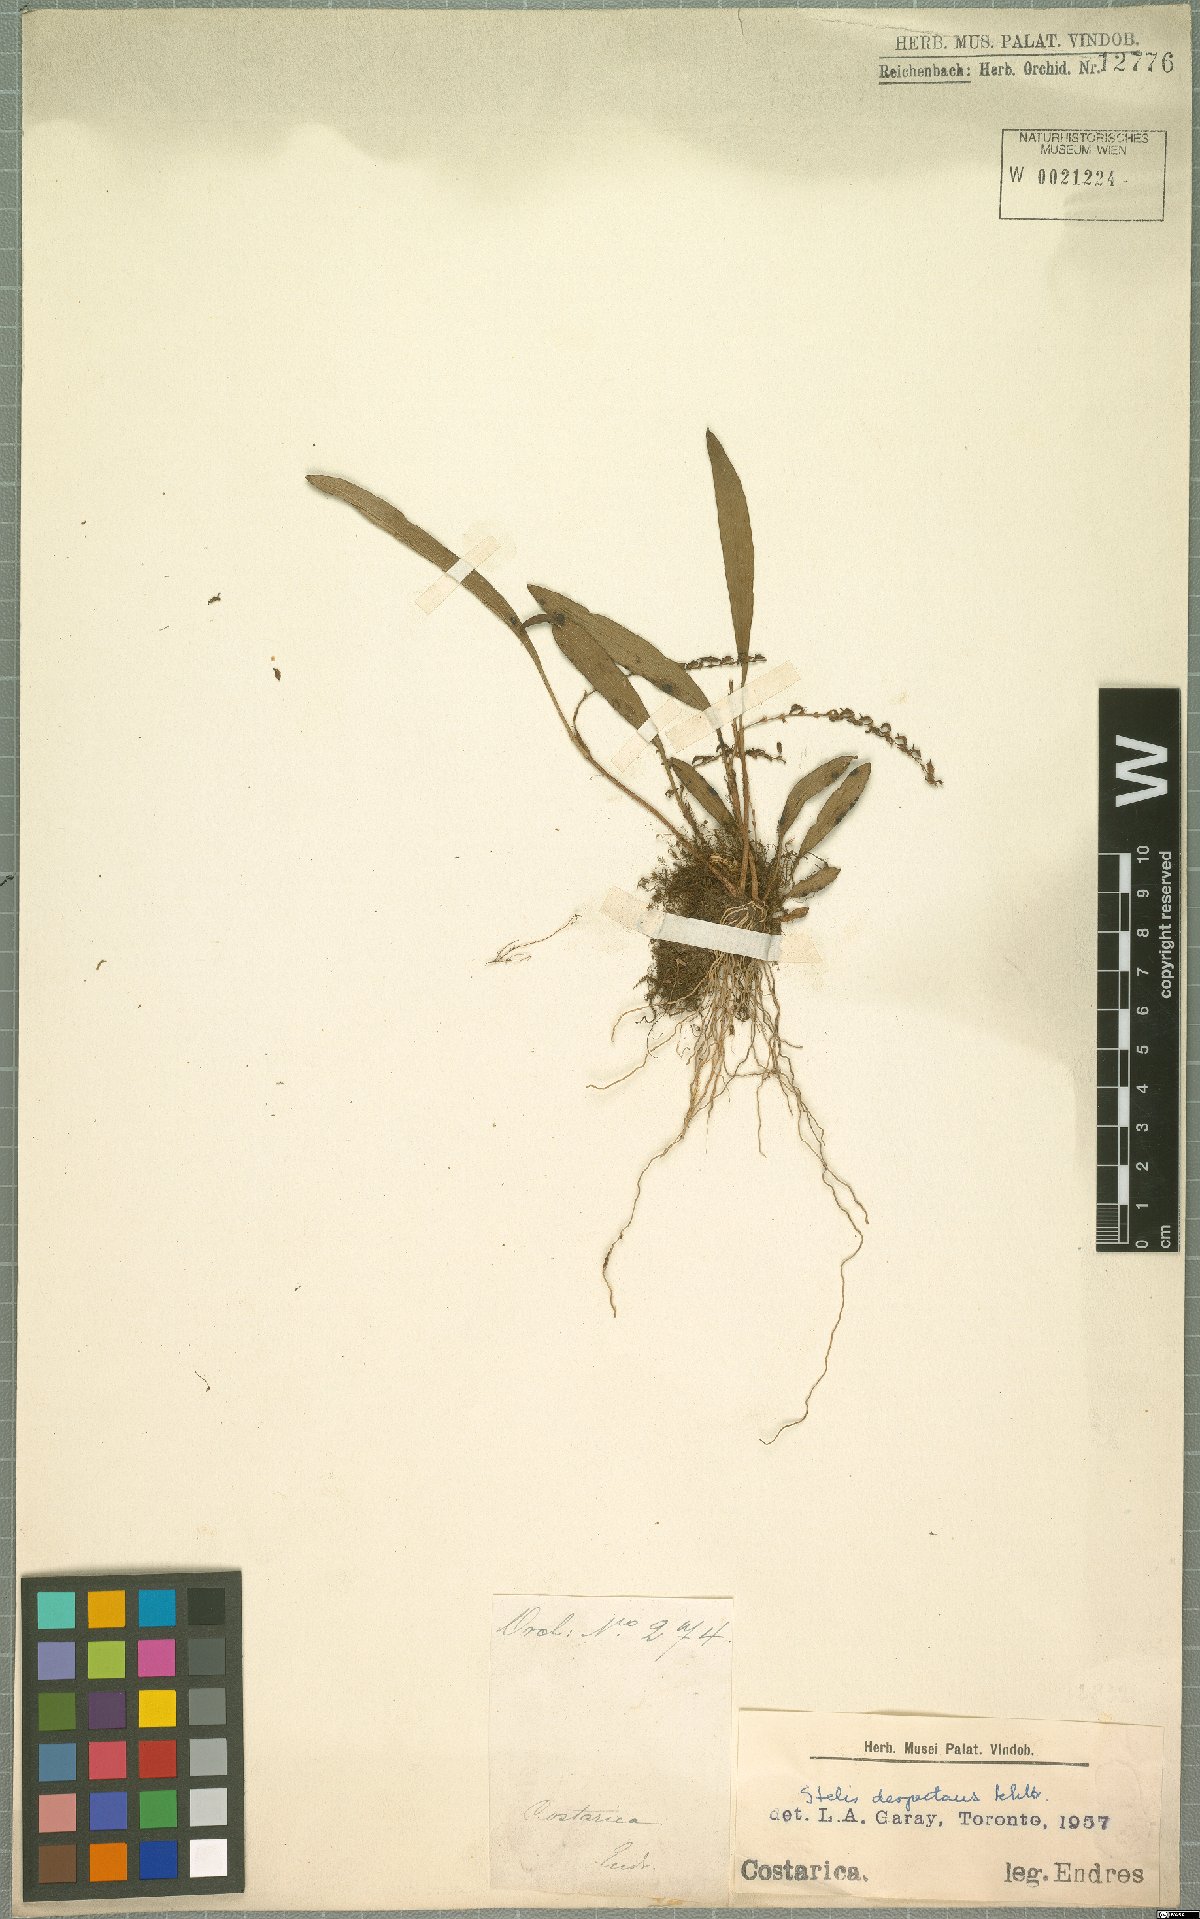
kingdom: Plantae
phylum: Tracheophyta
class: Liliopsida
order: Asparagales
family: Orchidaceae
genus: Stelis
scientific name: Stelis despectans
